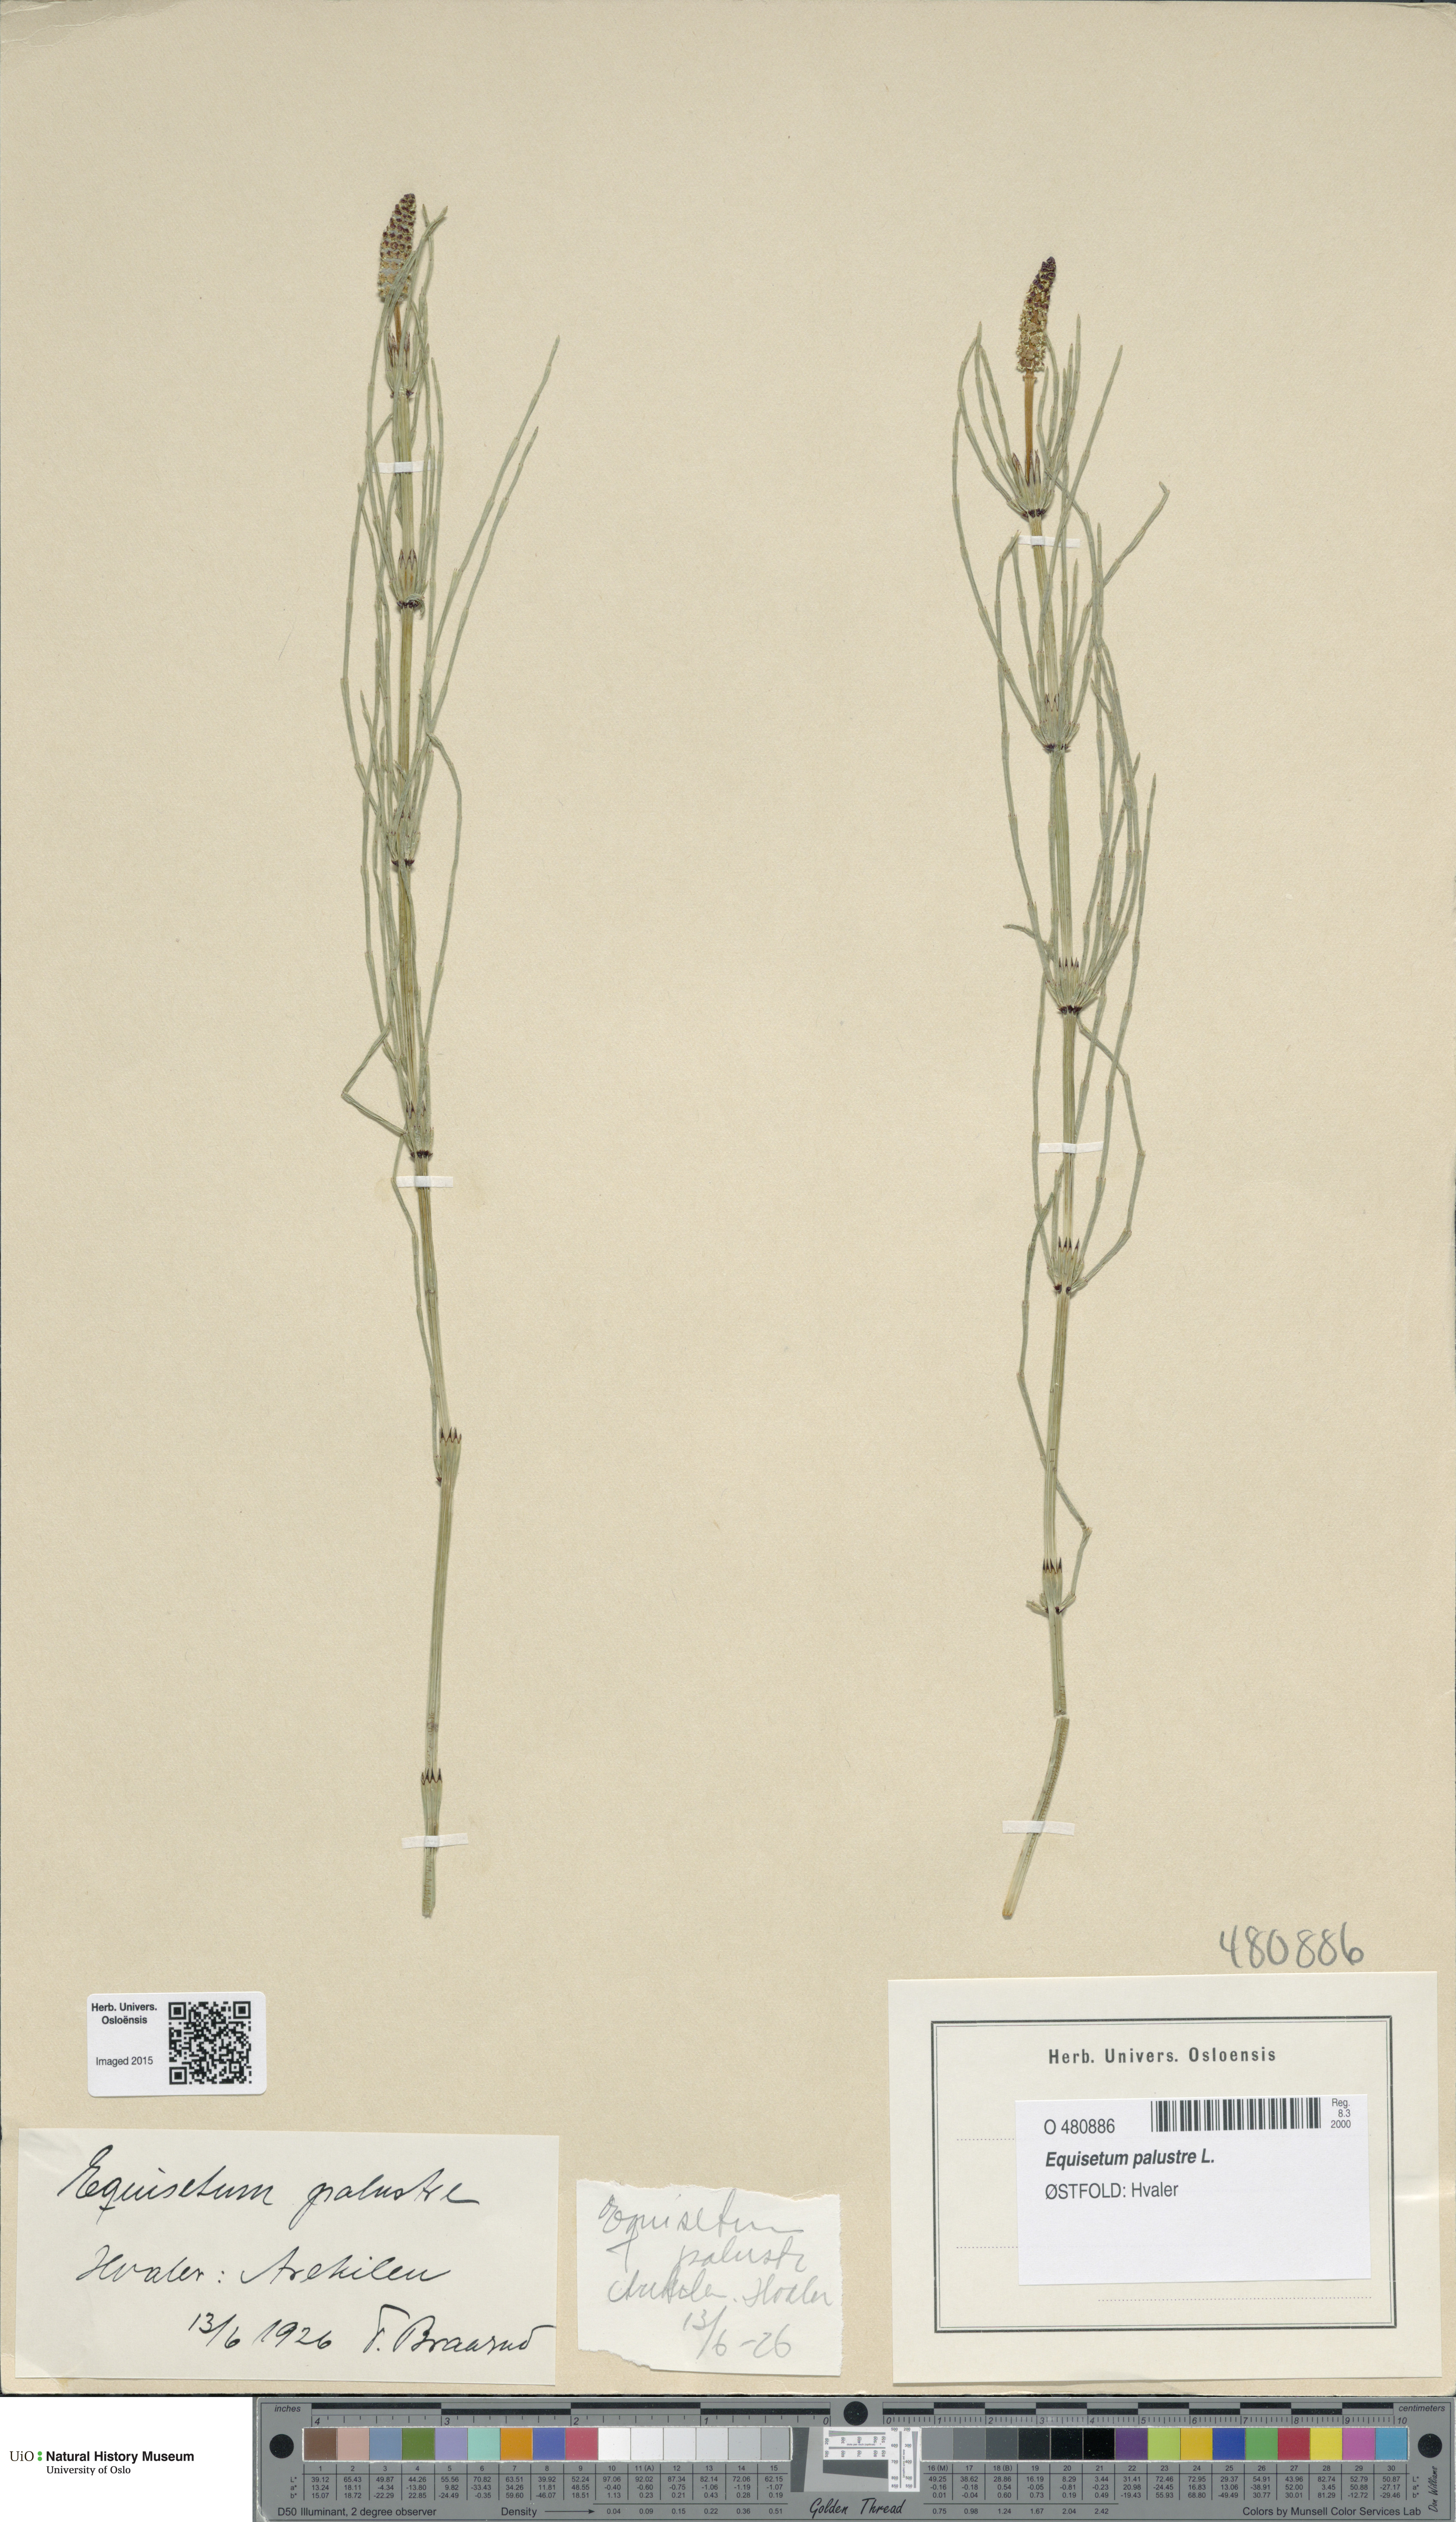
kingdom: Plantae
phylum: Tracheophyta
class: Polypodiopsida
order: Equisetales
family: Equisetaceae
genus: Equisetum
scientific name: Equisetum palustre
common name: Marsh horsetail
